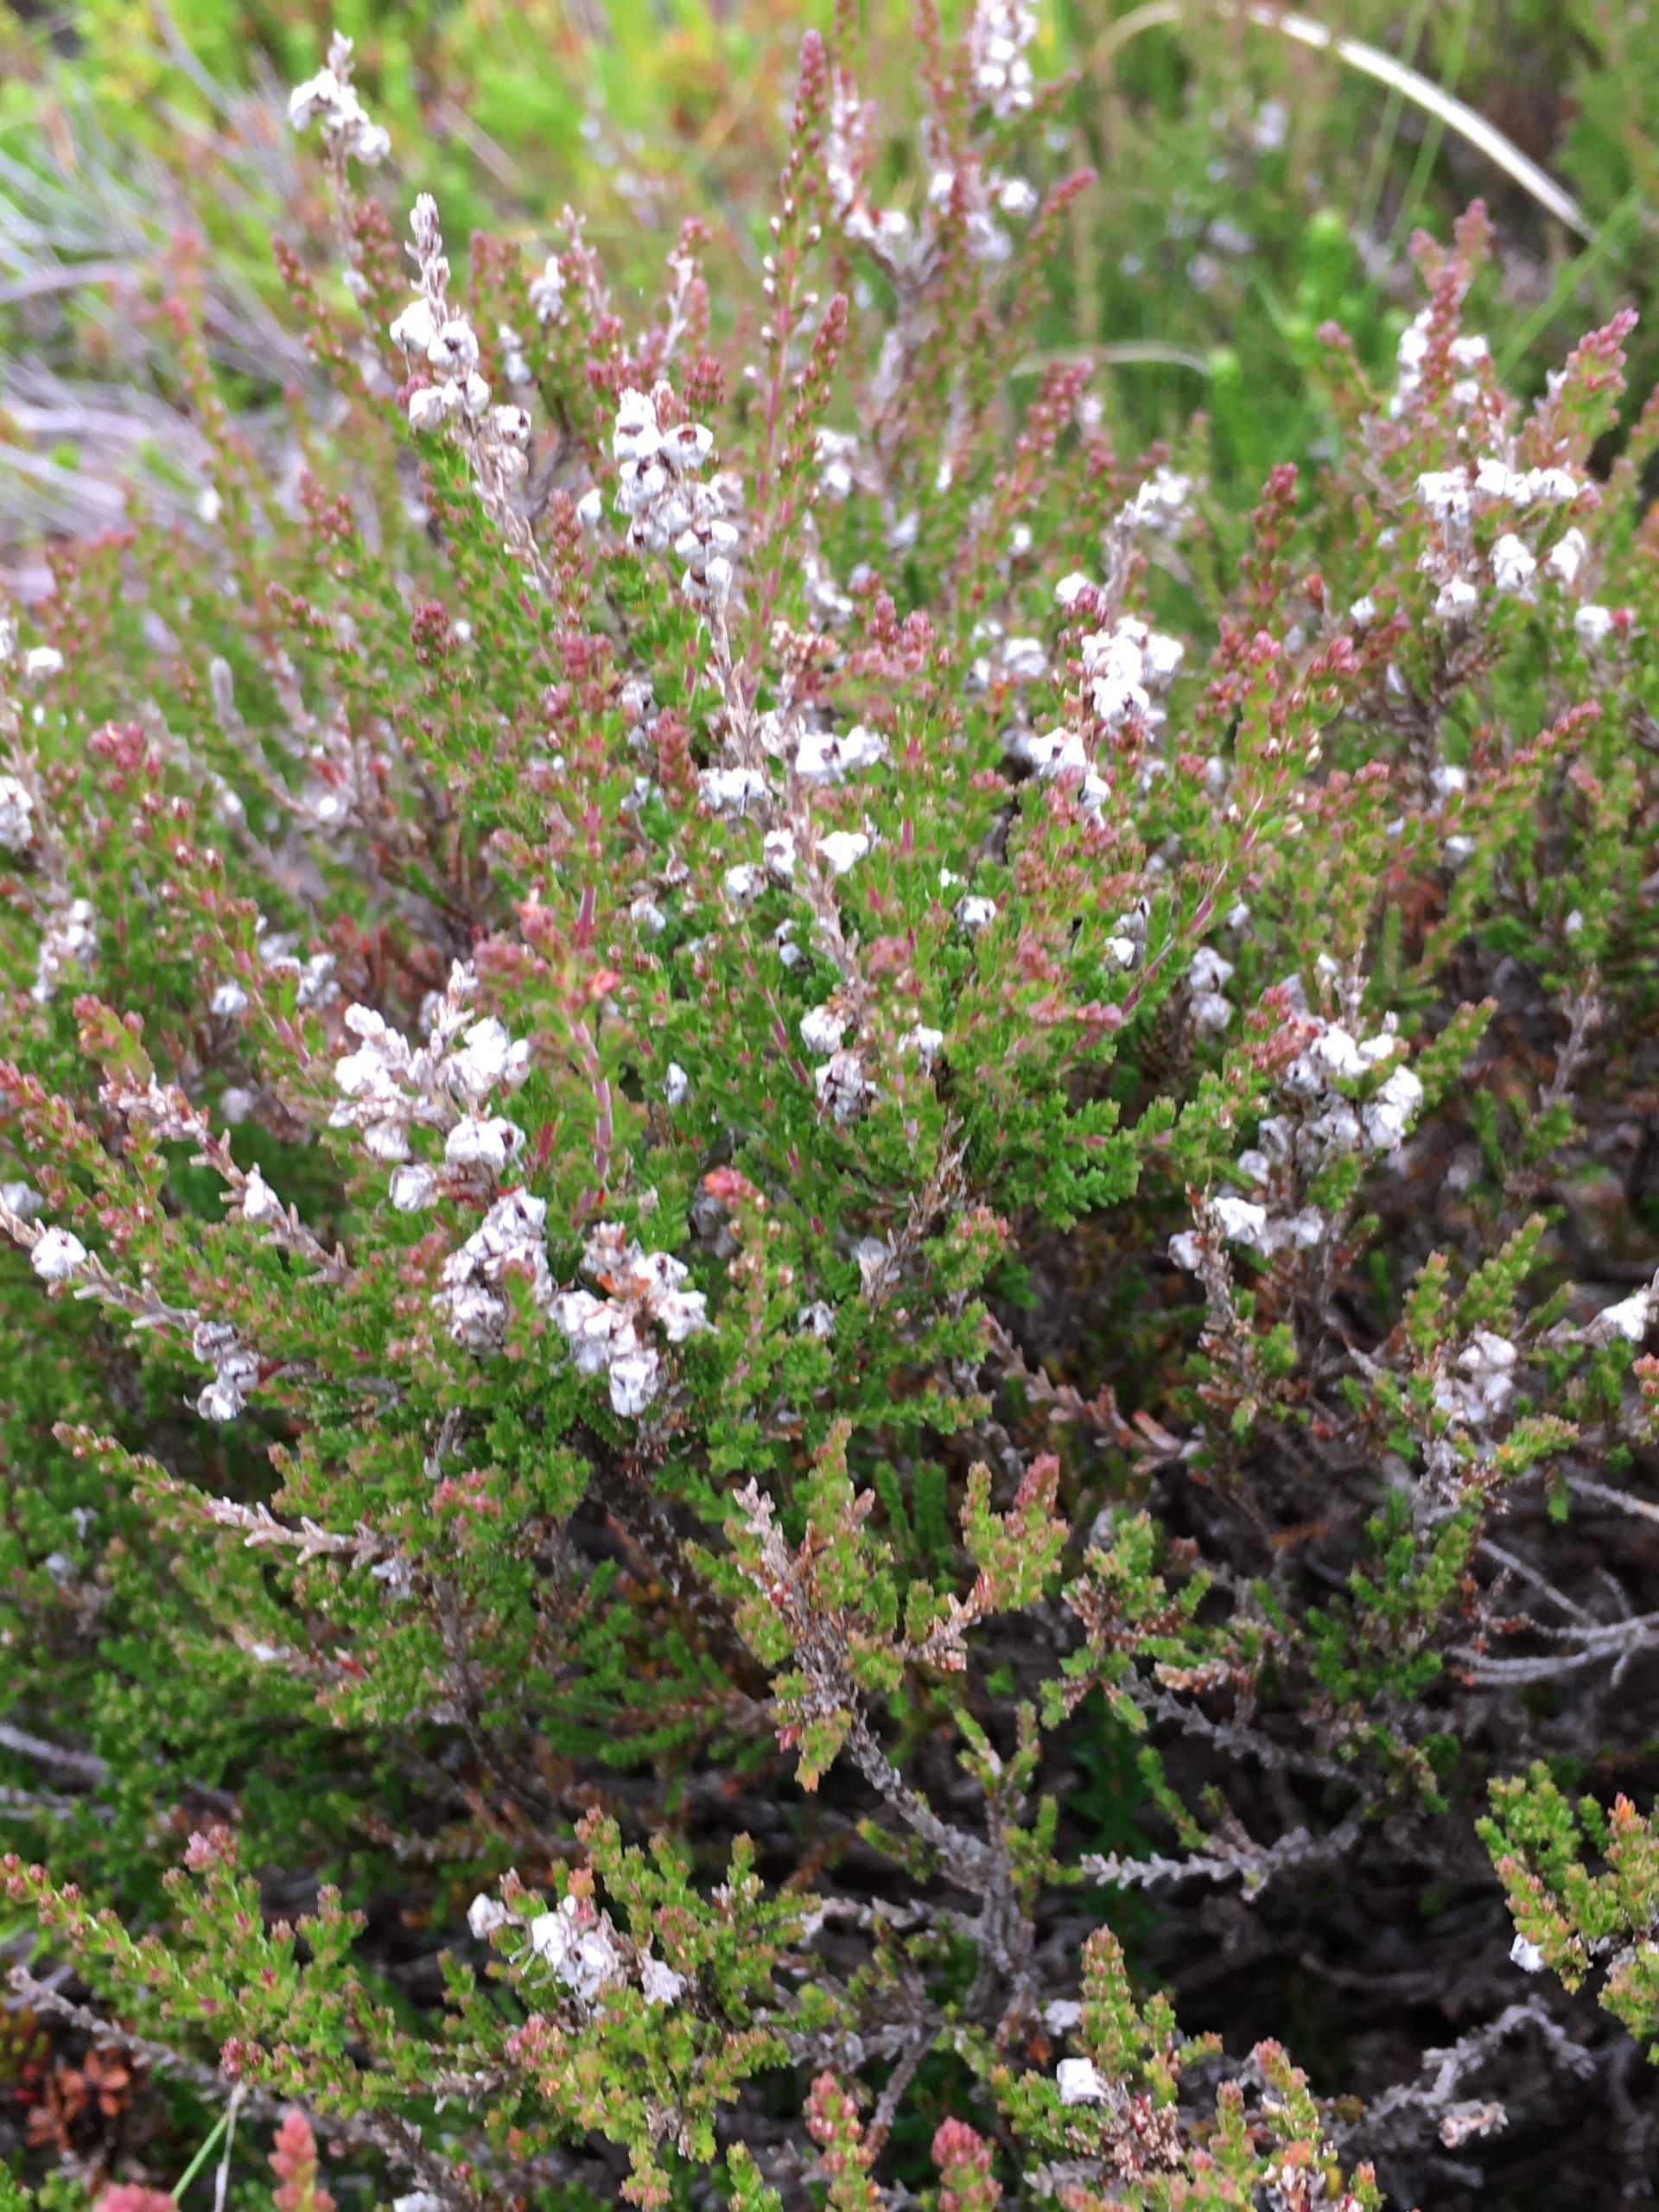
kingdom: Plantae
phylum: Tracheophyta
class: Magnoliopsida
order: Ericales
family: Ericaceae
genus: Calluna
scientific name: Calluna vulgaris
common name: Hedelyng
